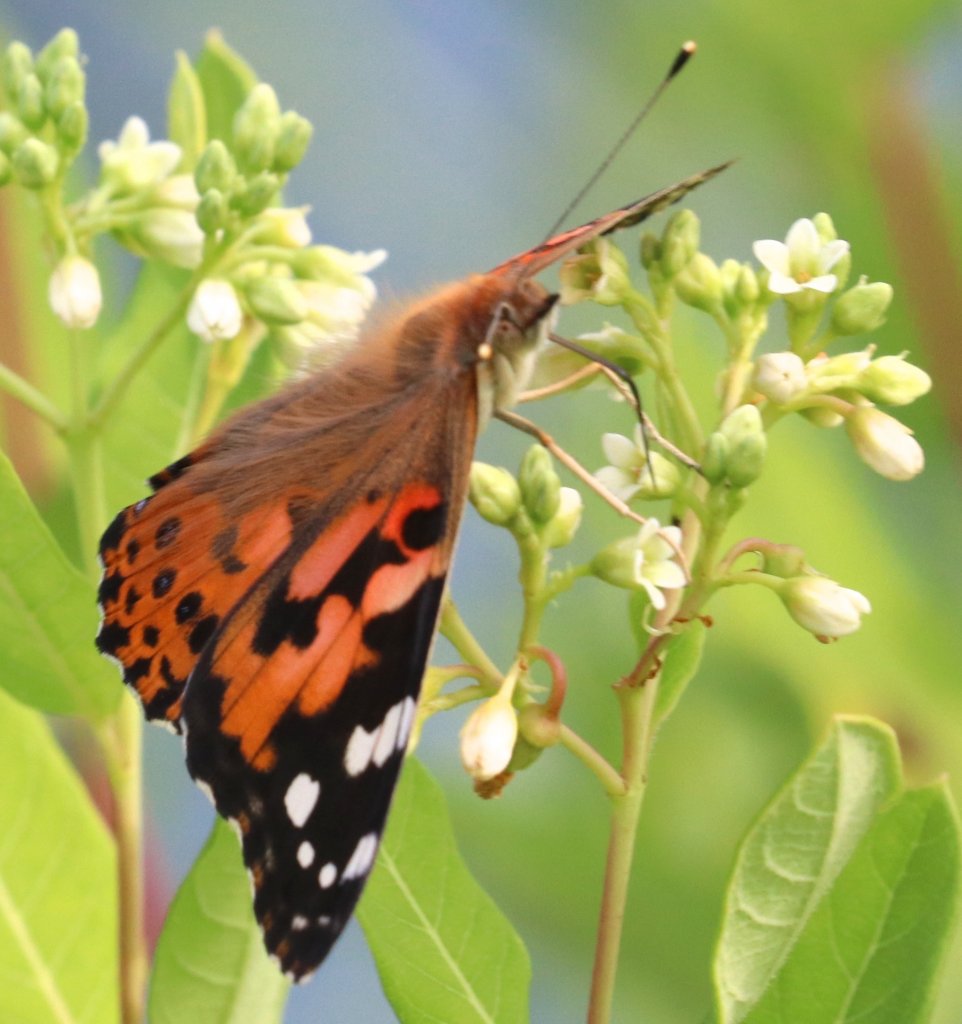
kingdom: Animalia
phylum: Arthropoda
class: Insecta
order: Lepidoptera
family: Nymphalidae
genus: Vanessa
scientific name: Vanessa cardui
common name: Painted Lady
